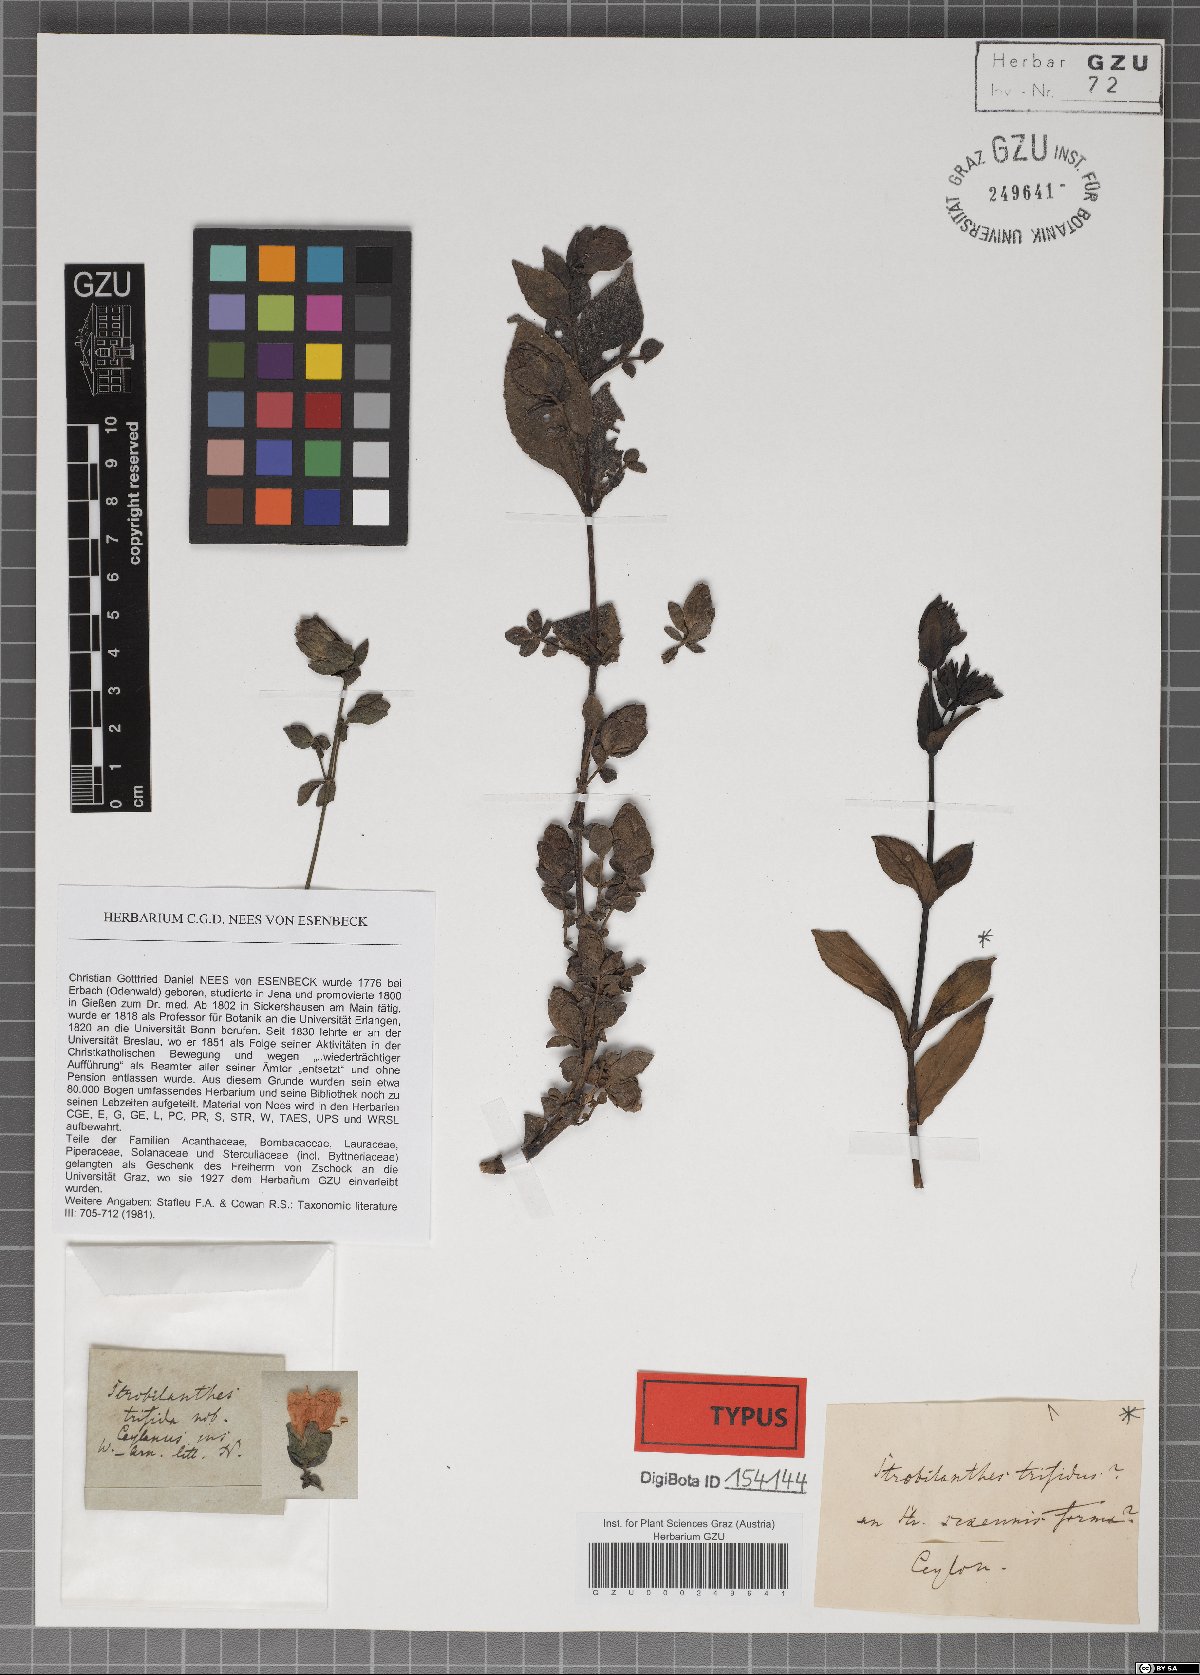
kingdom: Plantae
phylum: Tracheophyta
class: Magnoliopsida
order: Lamiales
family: Acanthaceae
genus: Strobilanthes
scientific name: Strobilanthes heyneana
